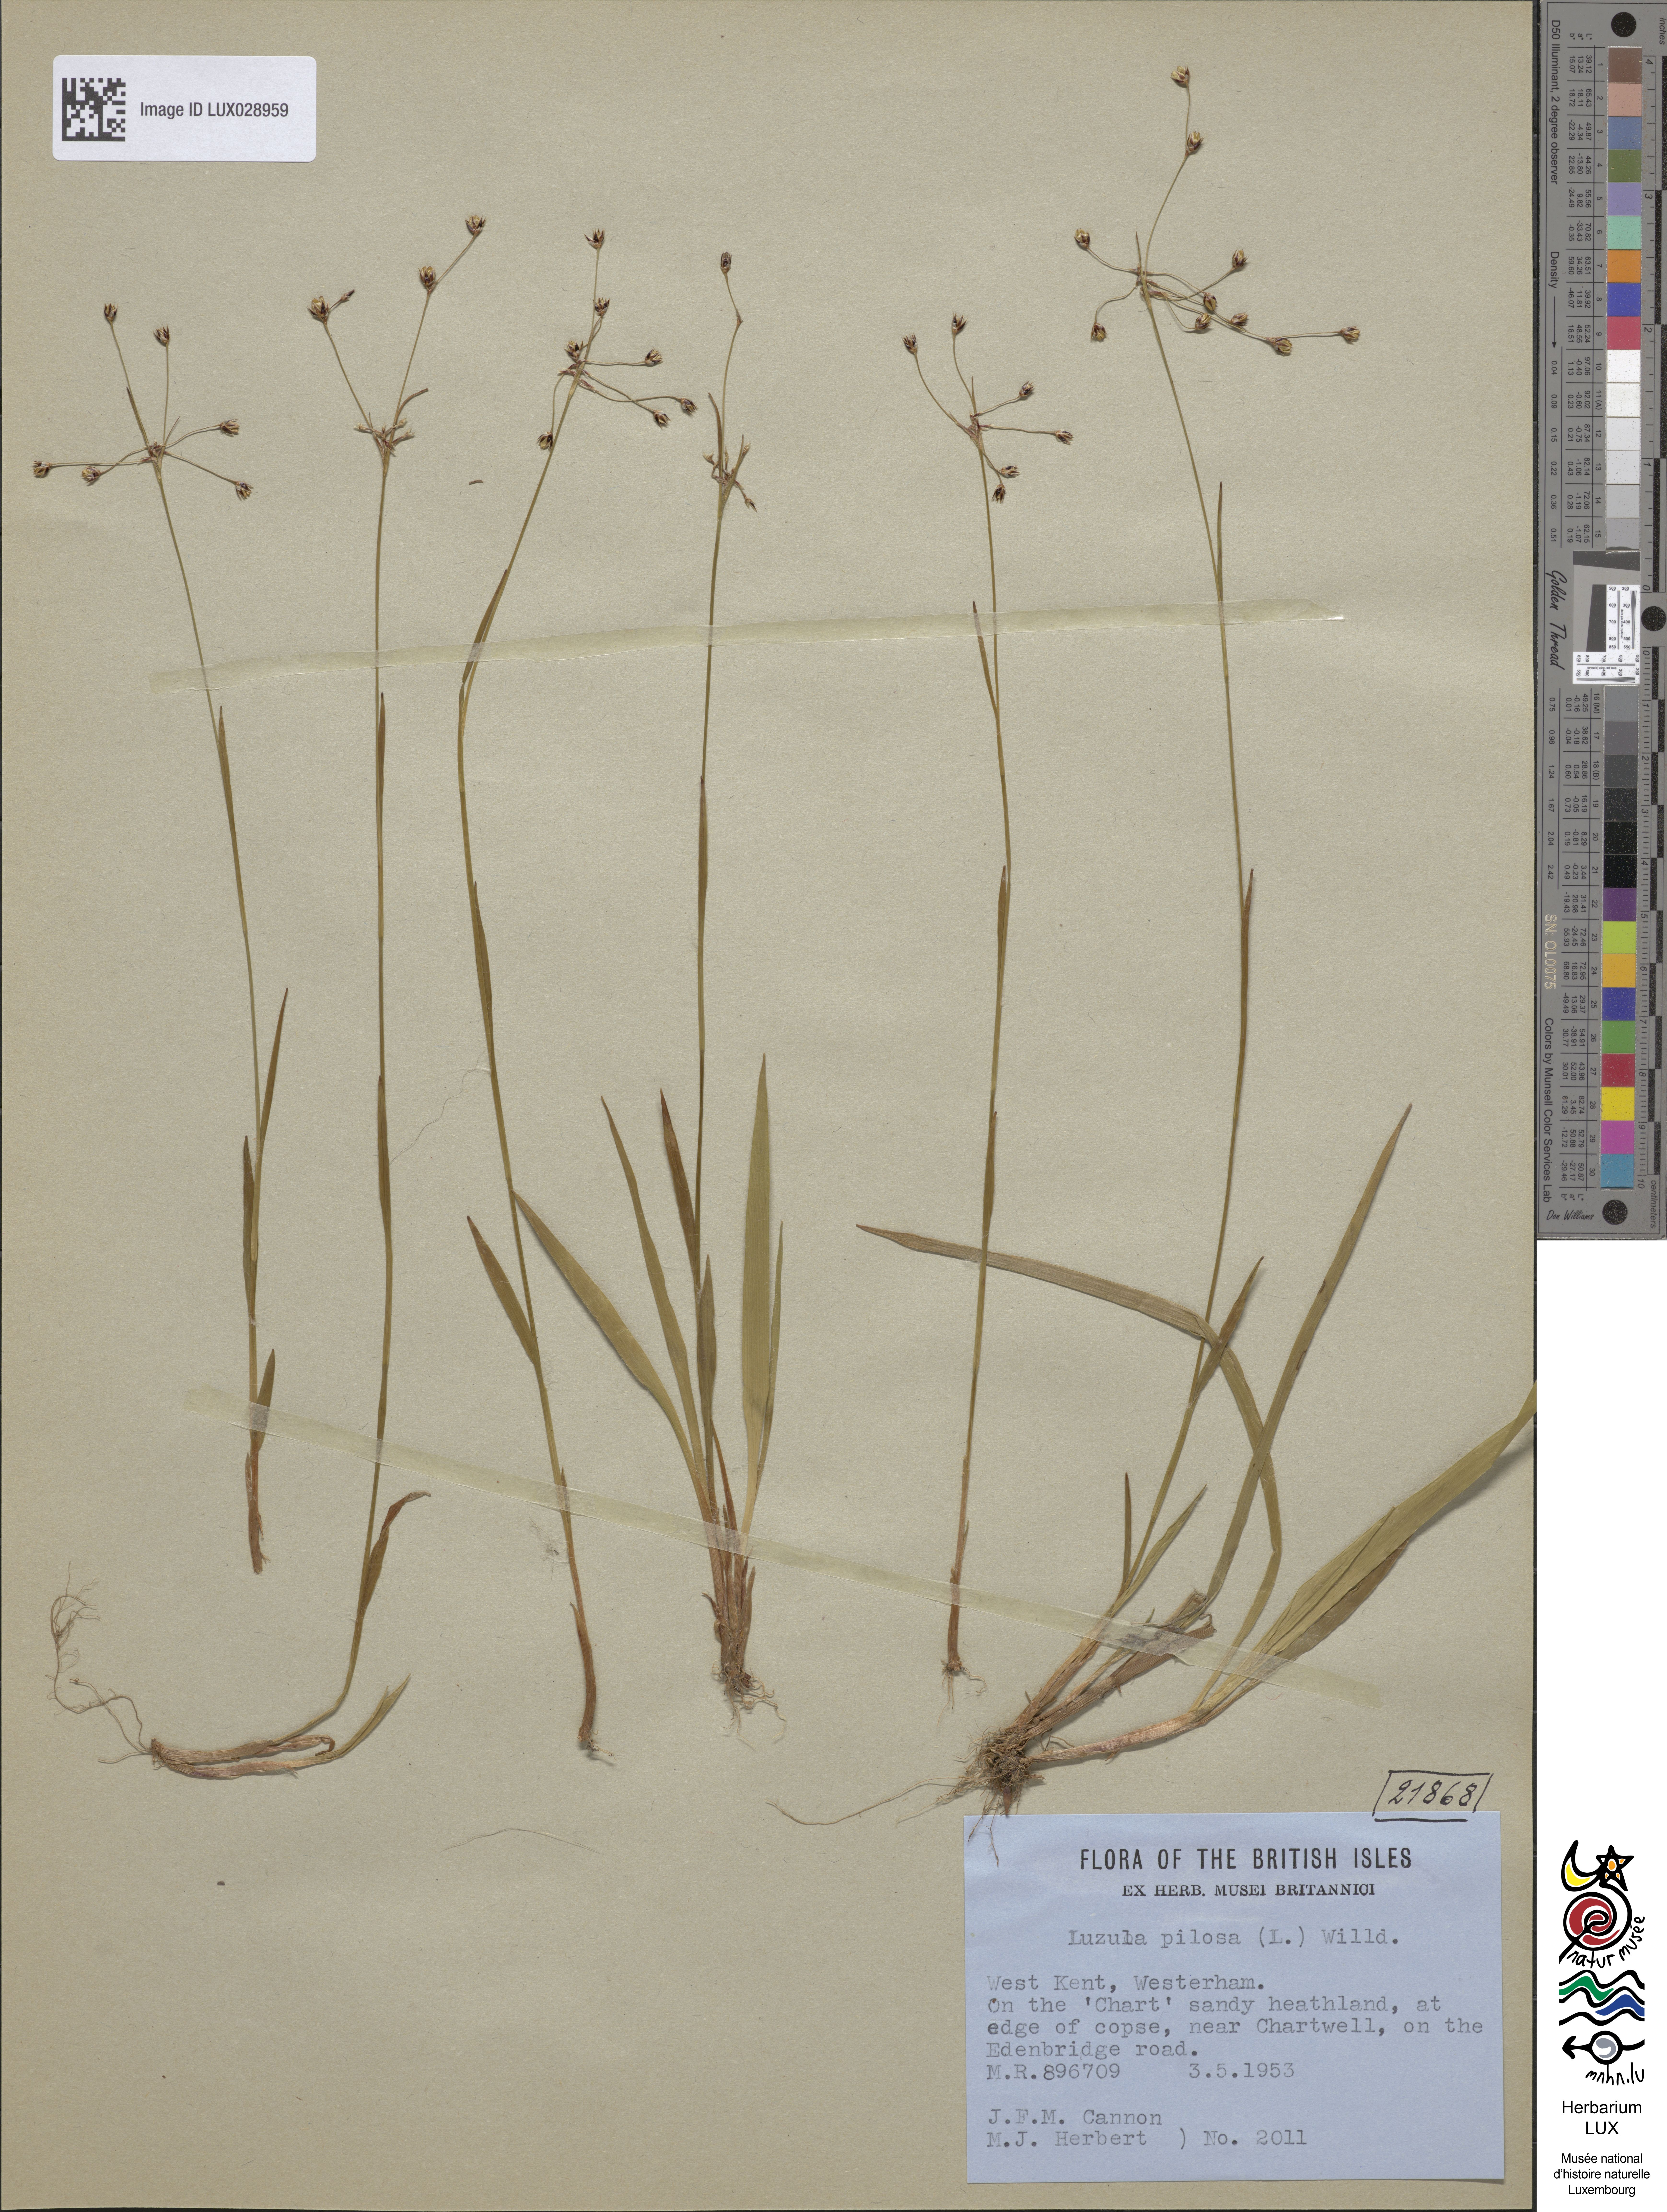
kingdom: Plantae
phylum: Tracheophyta
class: Liliopsida
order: Poales
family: Juncaceae
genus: Luzula
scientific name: Luzula pilosa
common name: Hairy wood-rush
